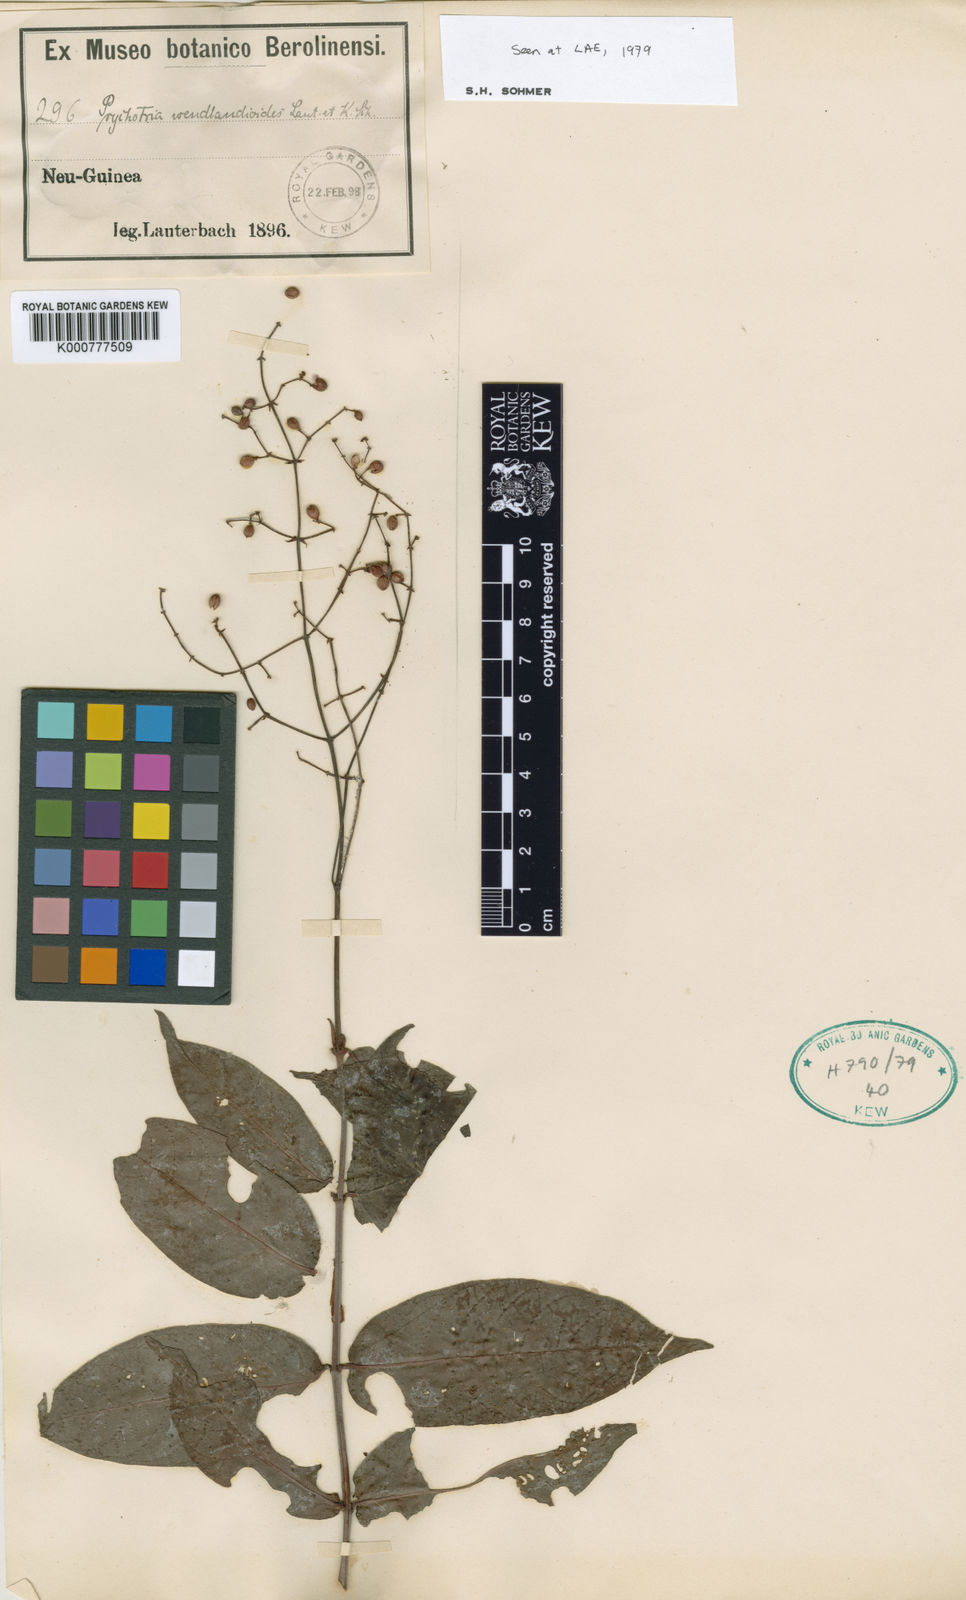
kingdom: Plantae
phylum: Tracheophyta
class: Magnoliopsida
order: Gentianales
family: Rubiaceae
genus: Psychotria
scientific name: Psychotria
